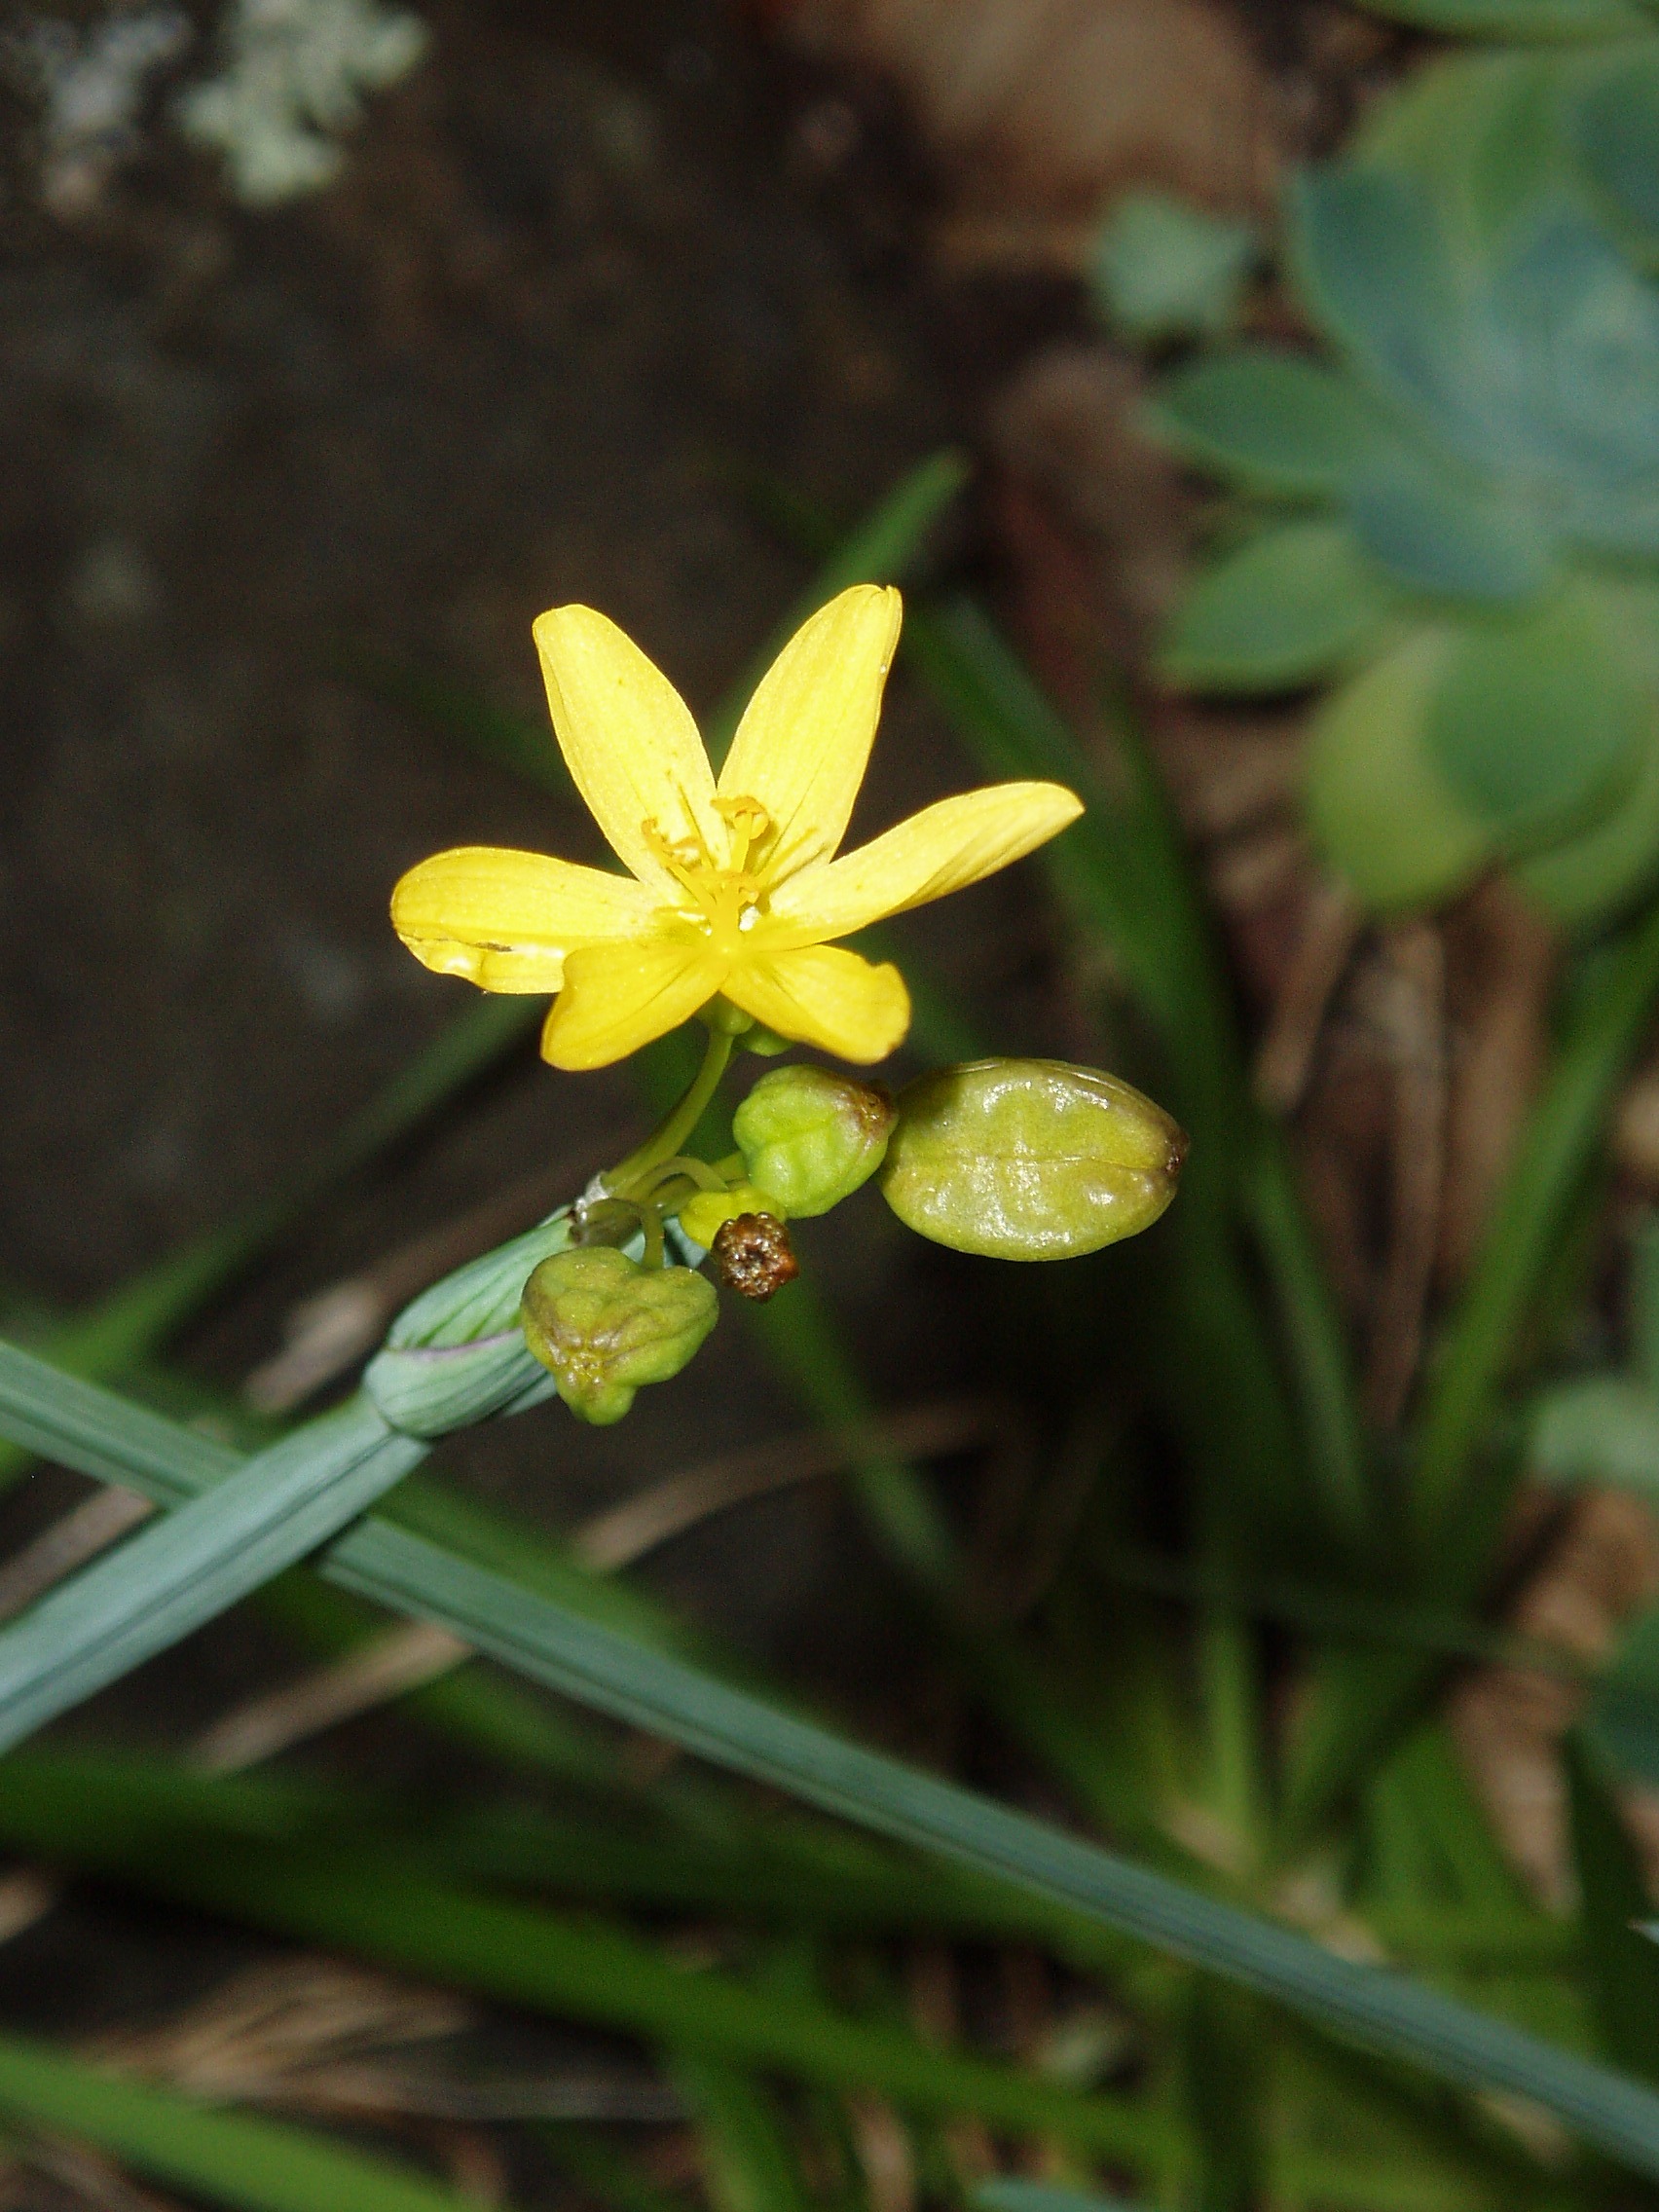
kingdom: Plantae
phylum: Tracheophyta
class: Liliopsida
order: Asparagales
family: Iridaceae
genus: Sisyrinchium
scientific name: Sisyrinchium californicum
